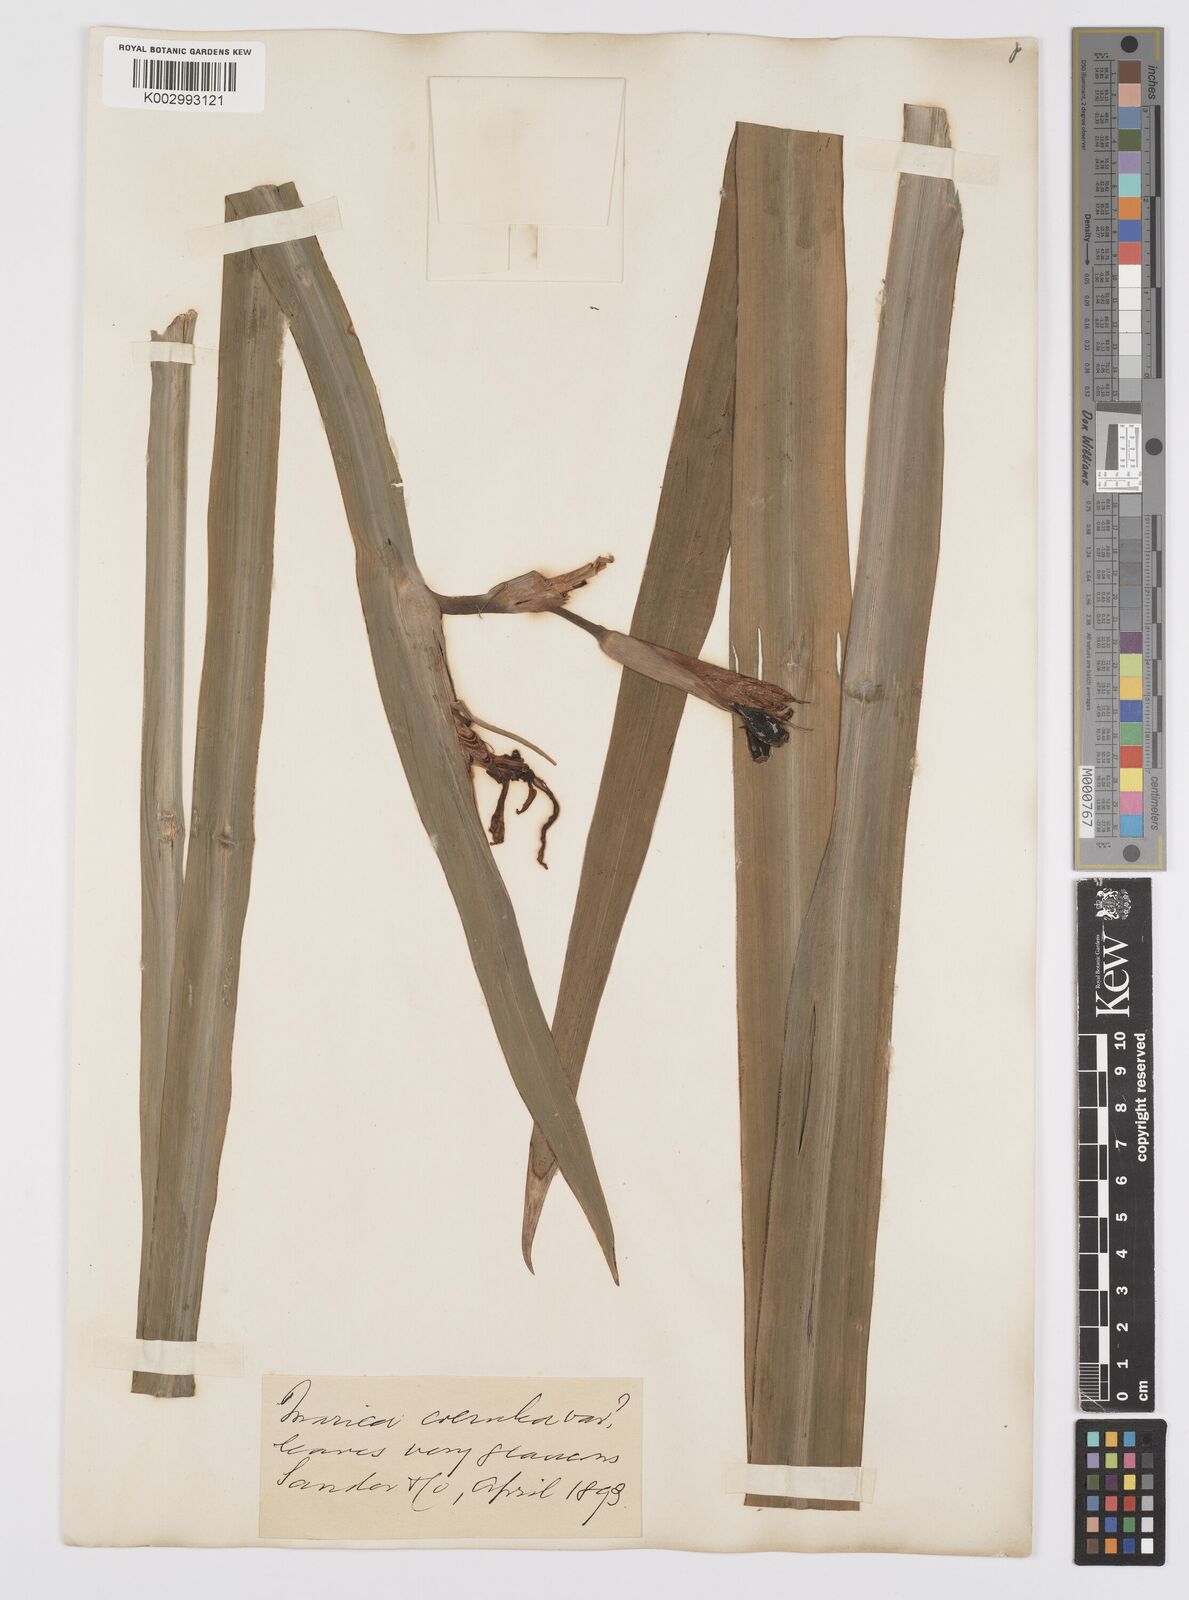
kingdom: Plantae
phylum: Tracheophyta
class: Liliopsida
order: Asparagales
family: Iridaceae
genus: Trimezia
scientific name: Trimezia sabini
